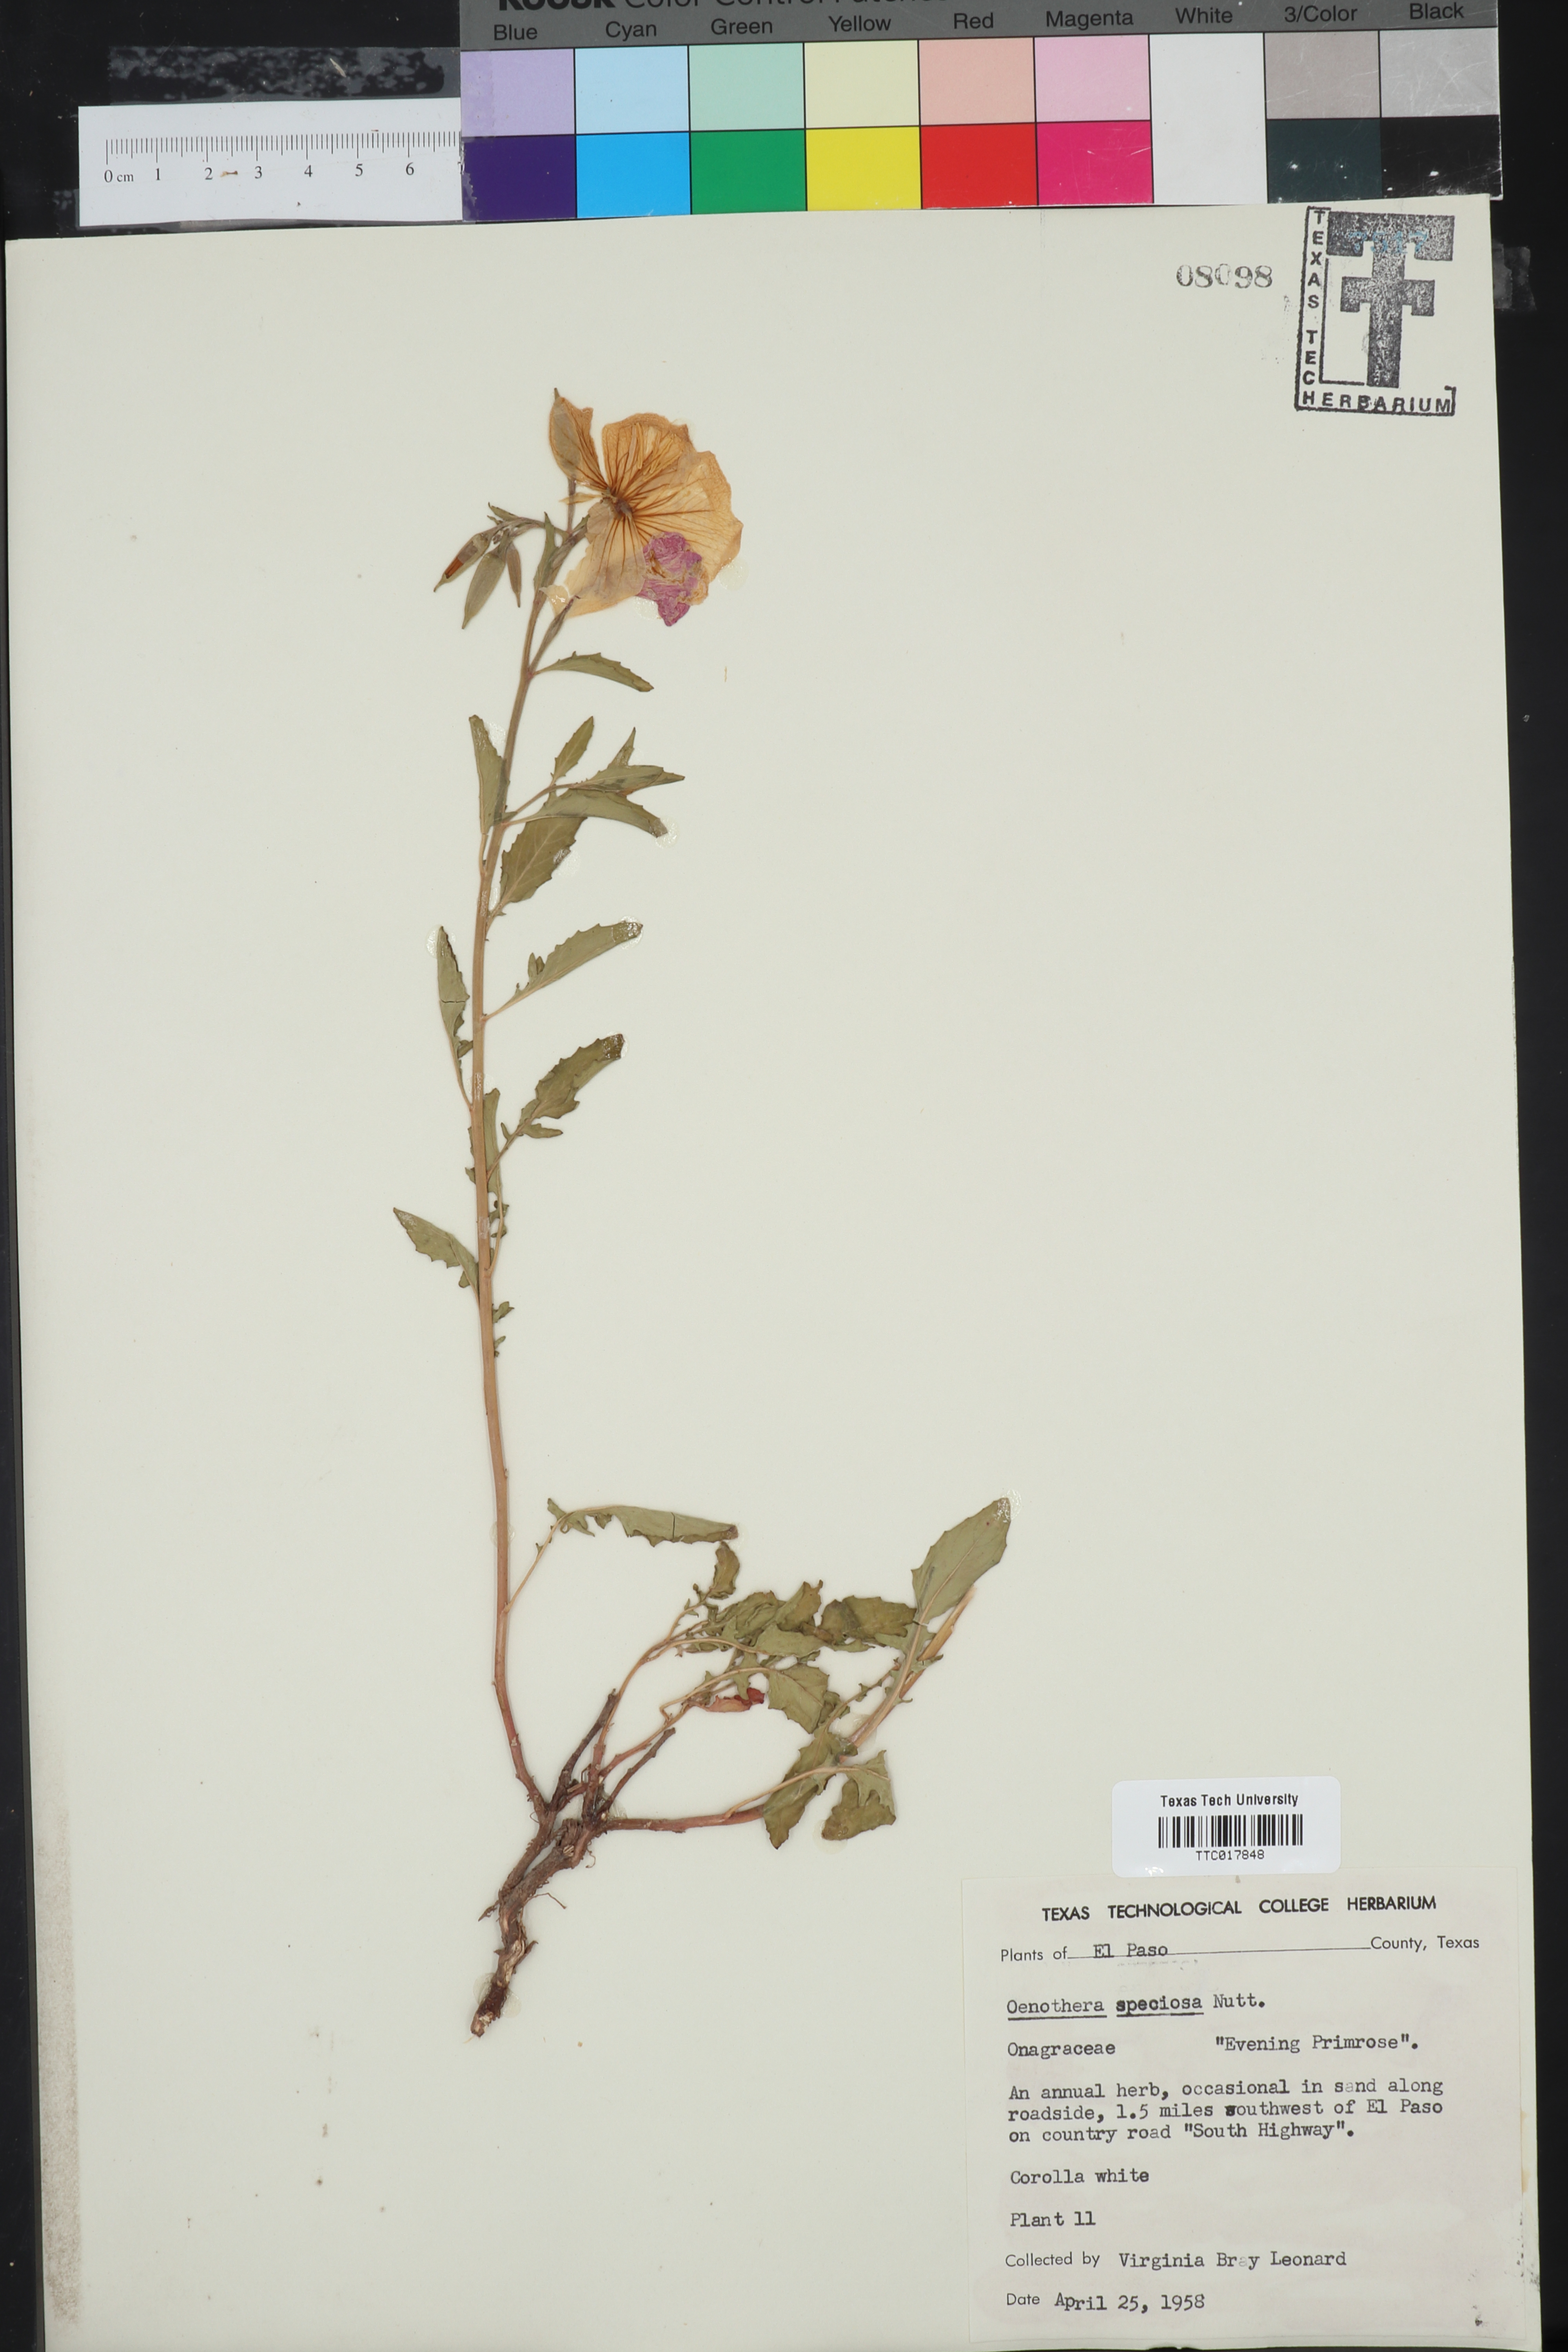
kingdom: Plantae
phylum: Tracheophyta
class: Magnoliopsida
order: Myrtales
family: Onagraceae
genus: Oenothera
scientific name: Oenothera speciosa
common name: White evening-primrose
